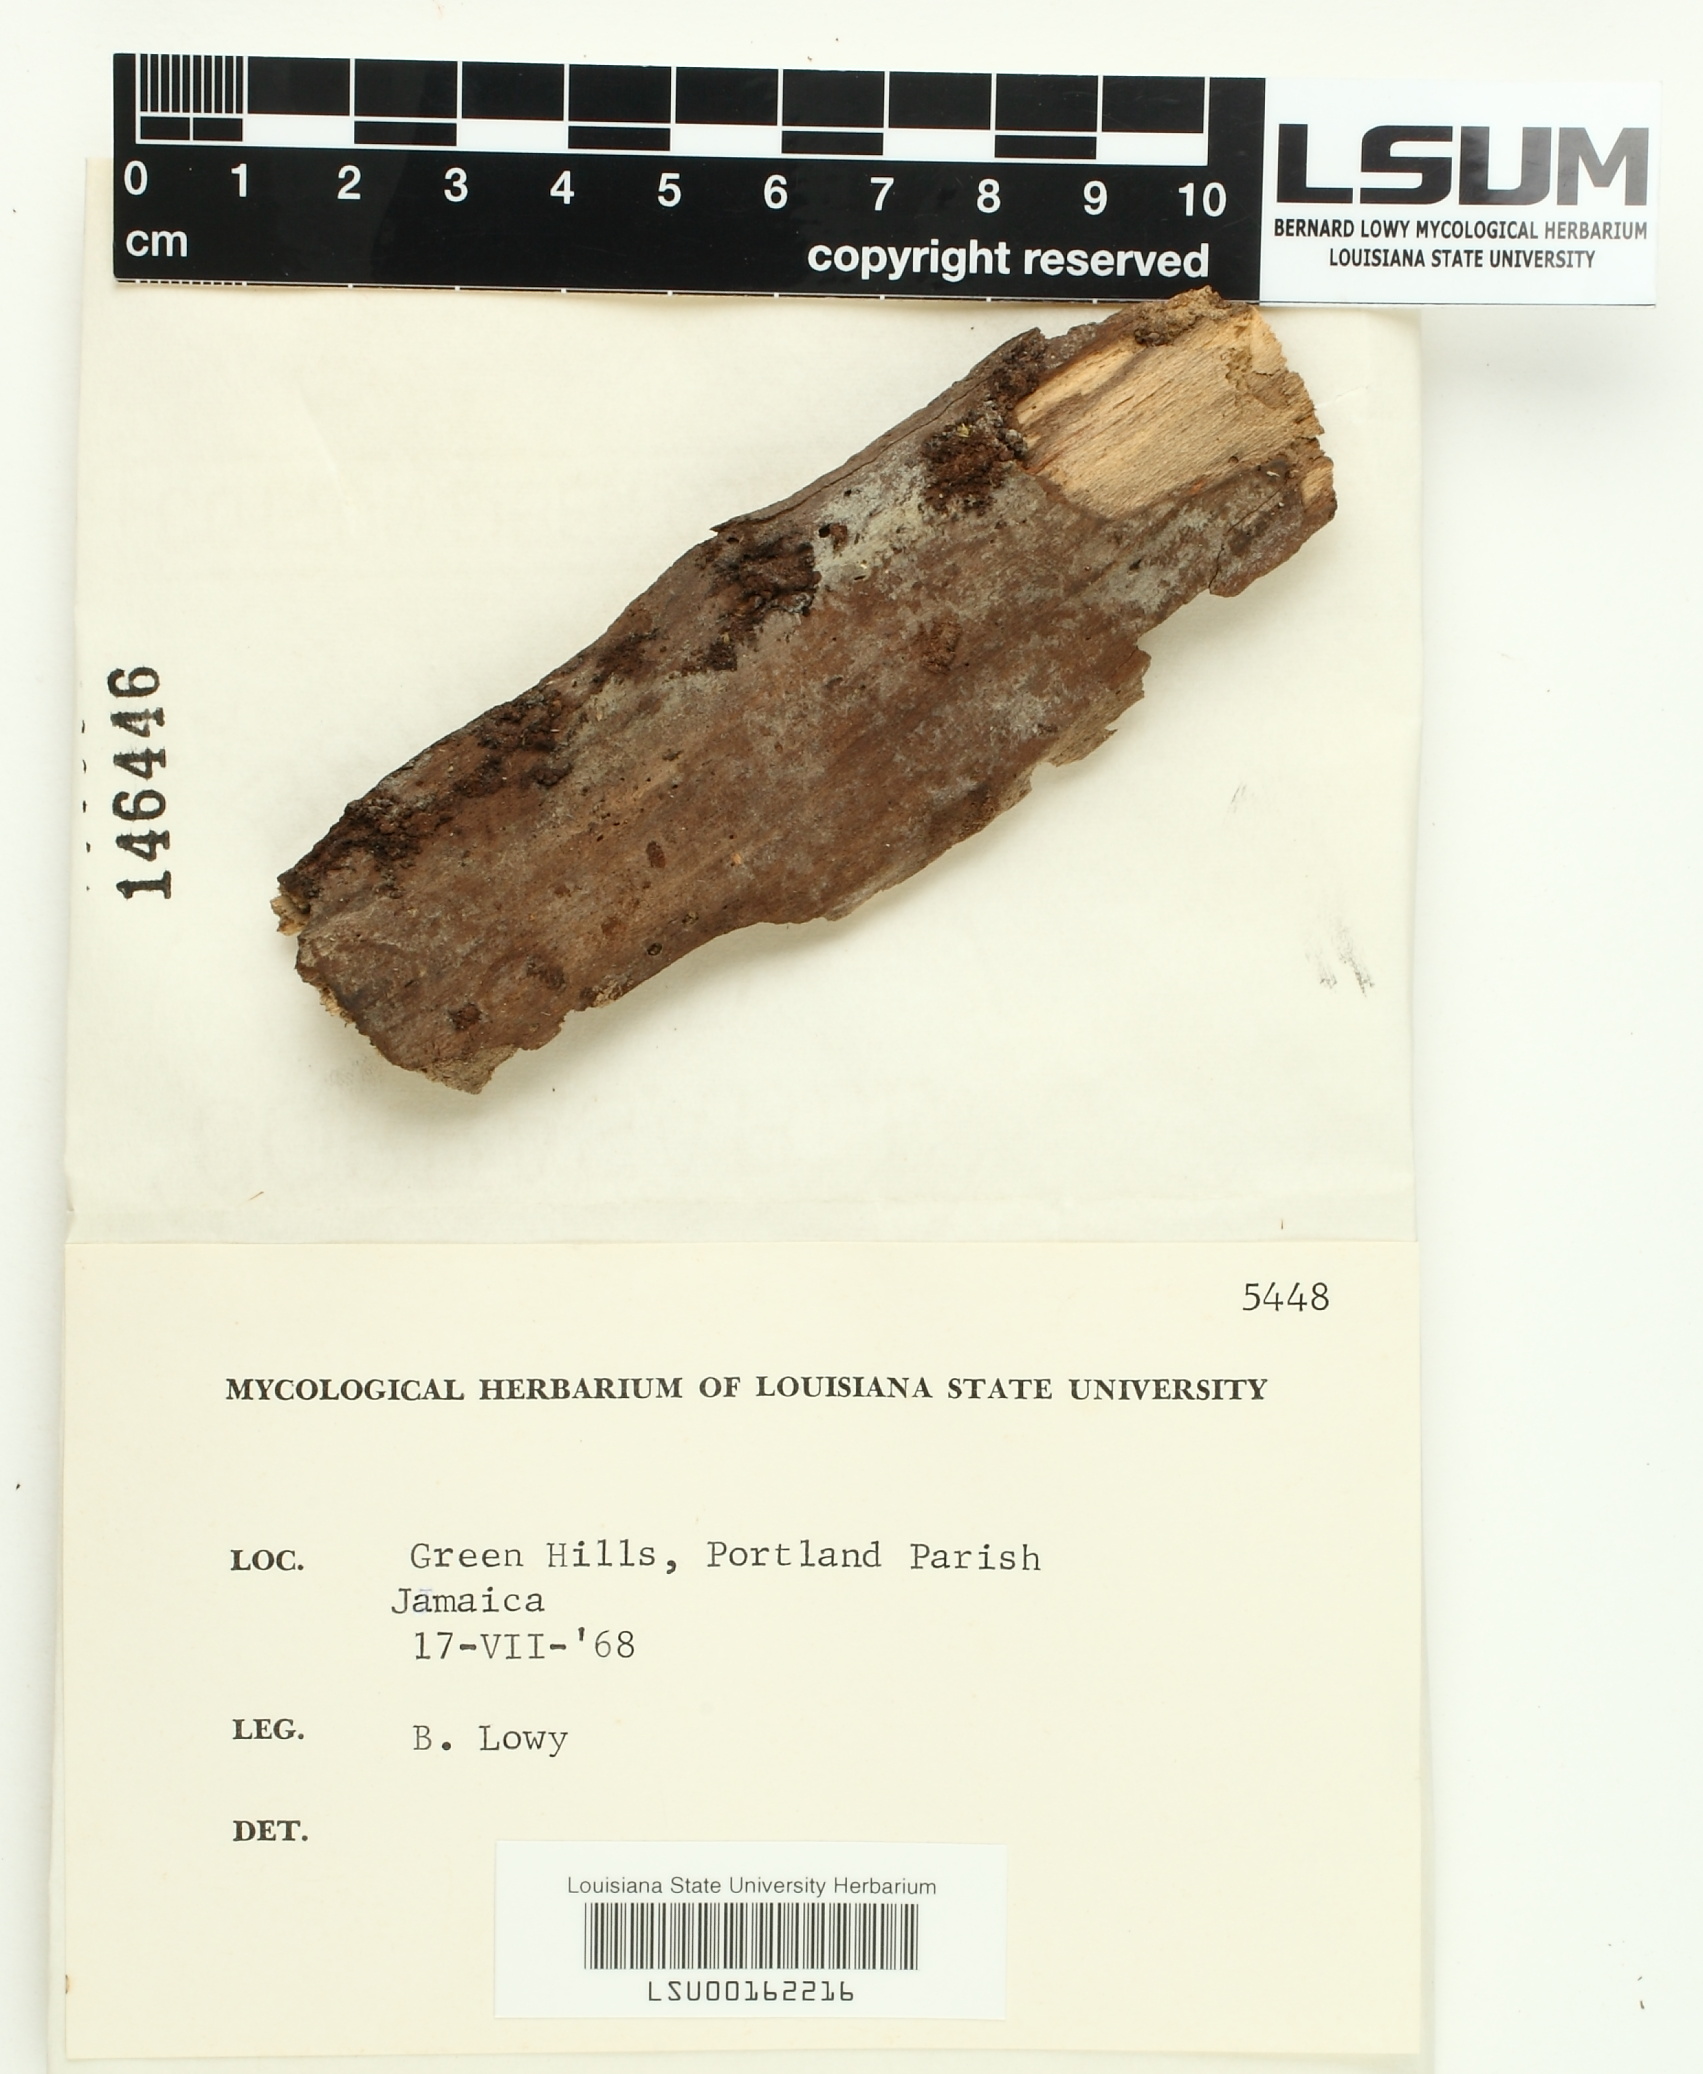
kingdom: Fungi
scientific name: Fungi
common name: Fungi
